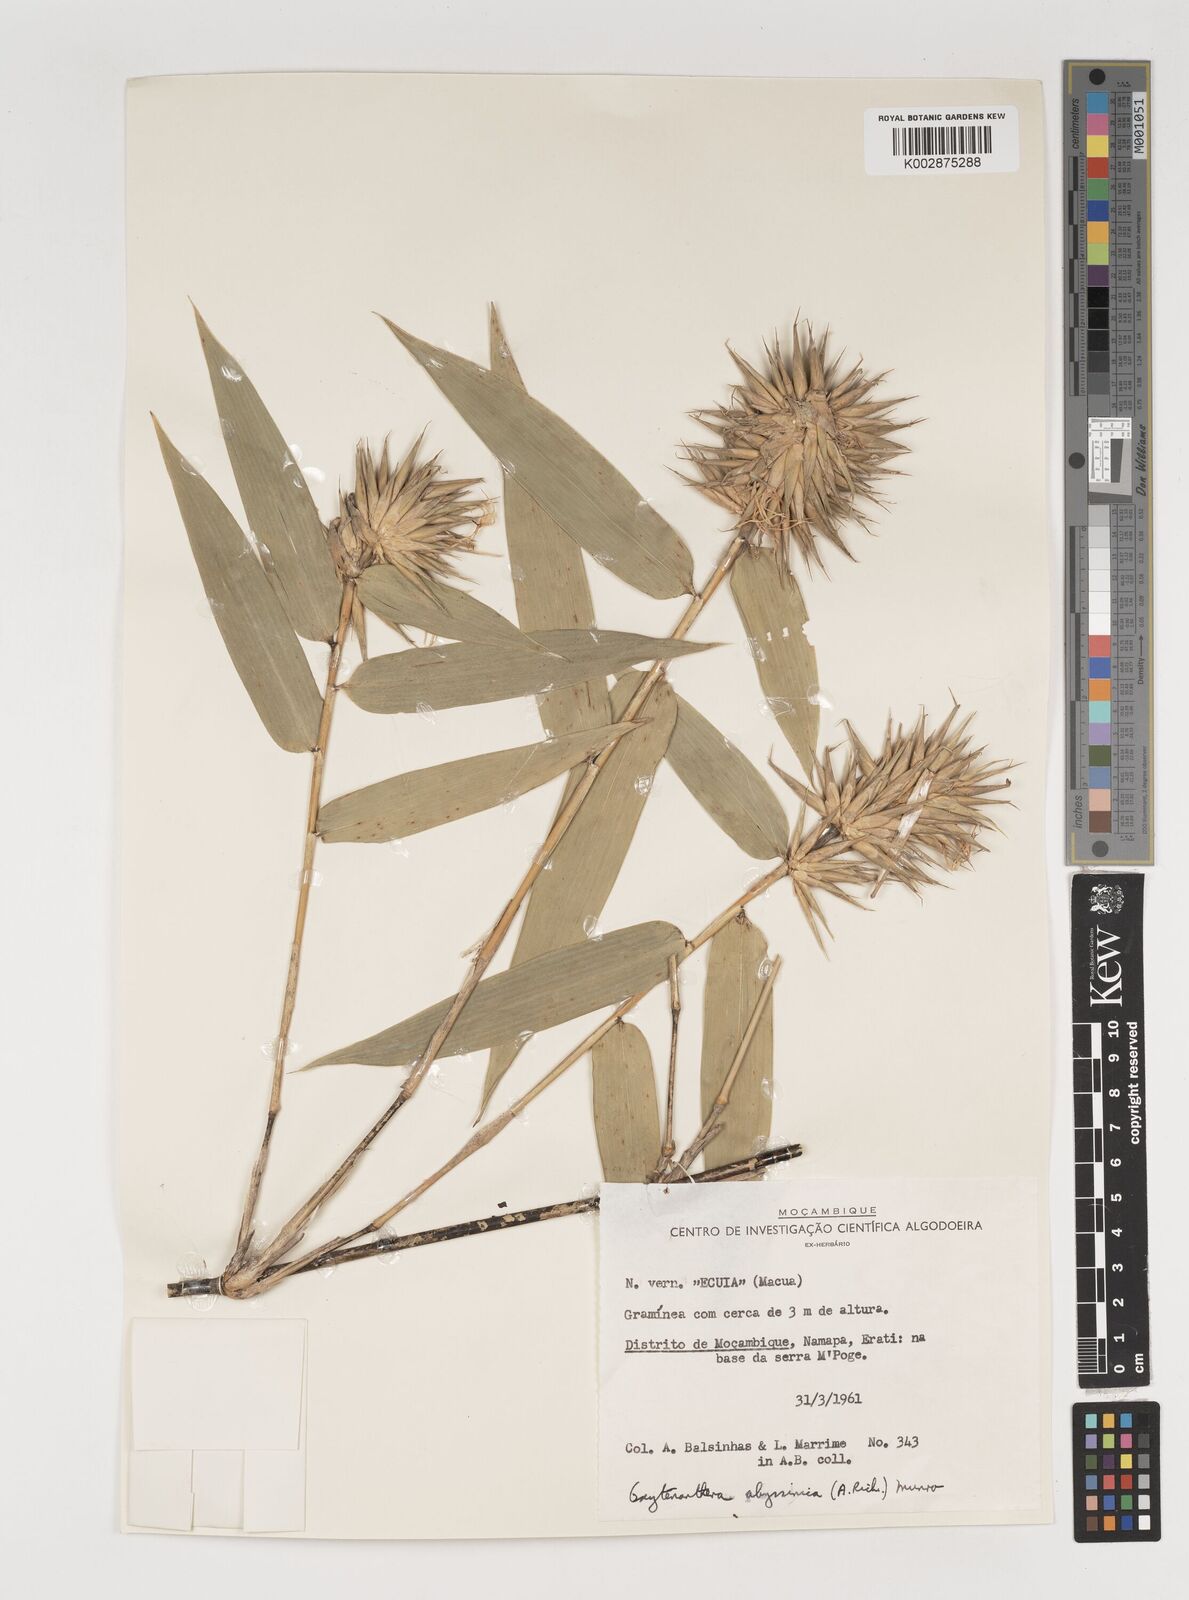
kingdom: Plantae
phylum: Tracheophyta
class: Liliopsida
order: Poales
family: Poaceae
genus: Oxytenanthera
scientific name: Oxytenanthera abyssinica
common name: Wine bamboo
